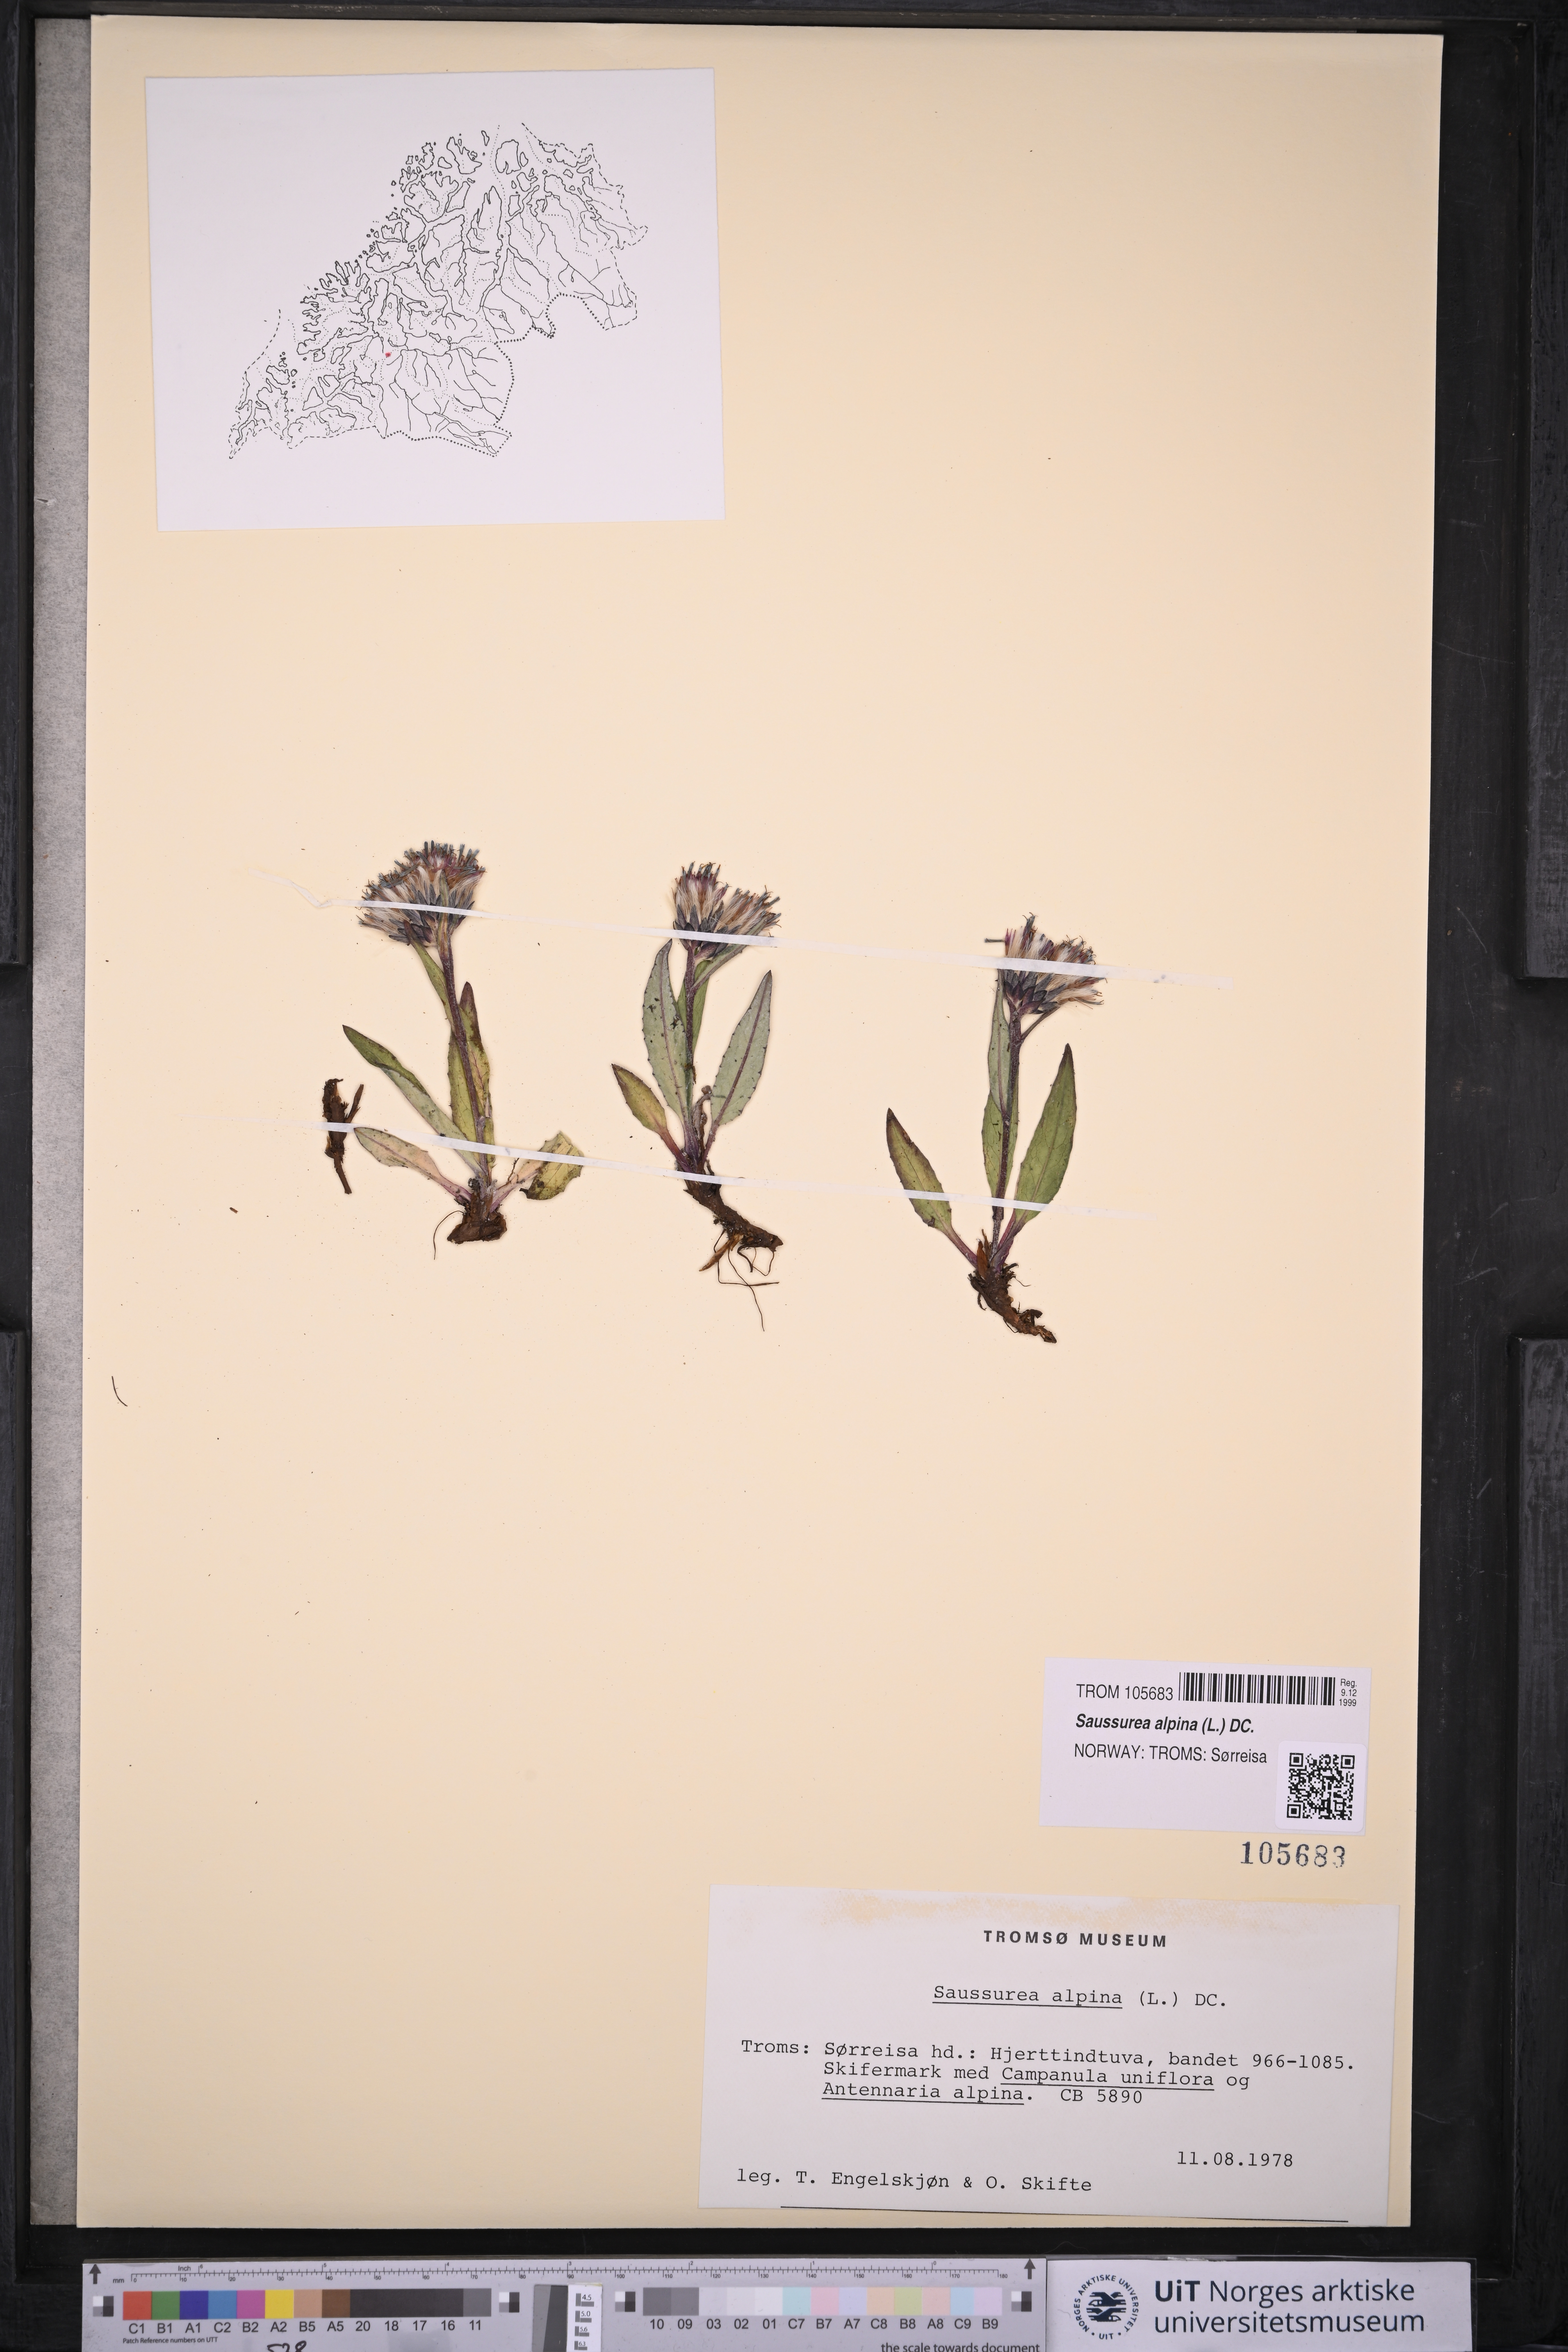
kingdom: Plantae
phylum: Tracheophyta
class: Magnoliopsida
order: Asterales
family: Asteraceae
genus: Saussurea
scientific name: Saussurea alpina
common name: Alpine saw-wort
